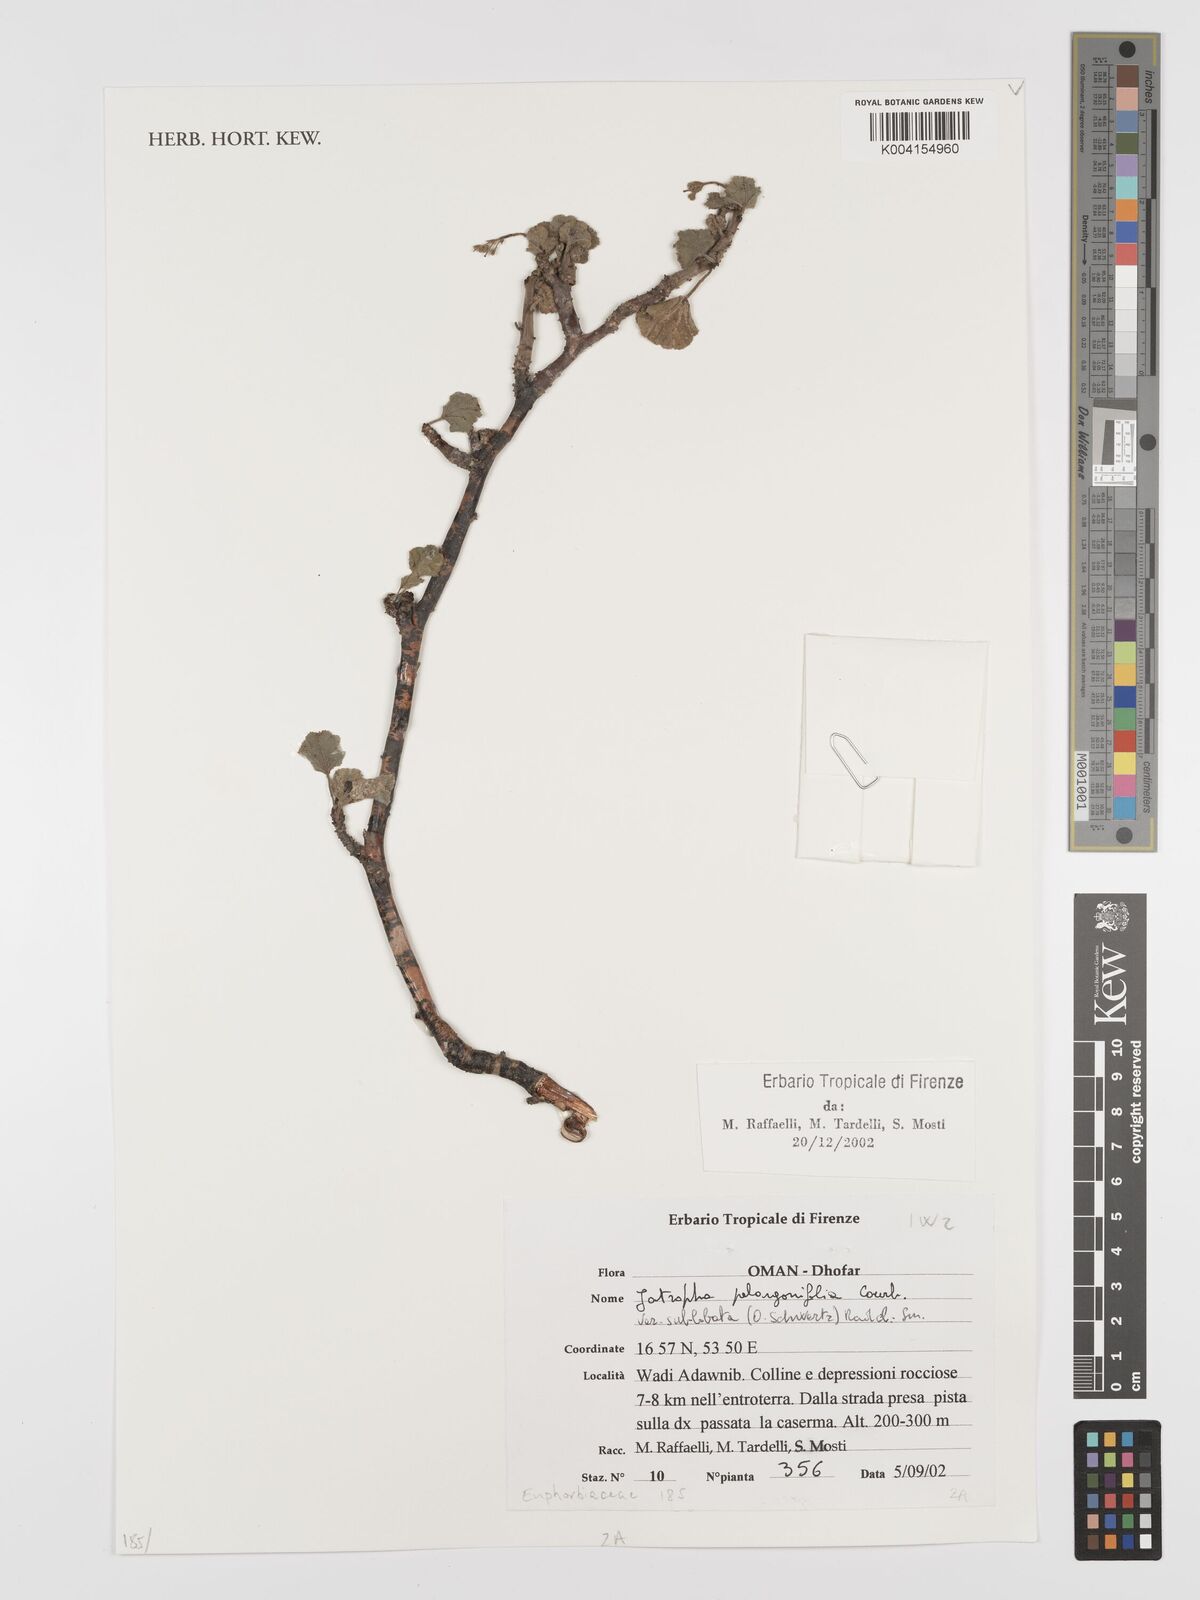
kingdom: Plantae
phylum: Tracheophyta
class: Magnoliopsida
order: Malpighiales
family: Euphorbiaceae
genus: Jatropha
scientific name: Jatropha pelargoniifolia
